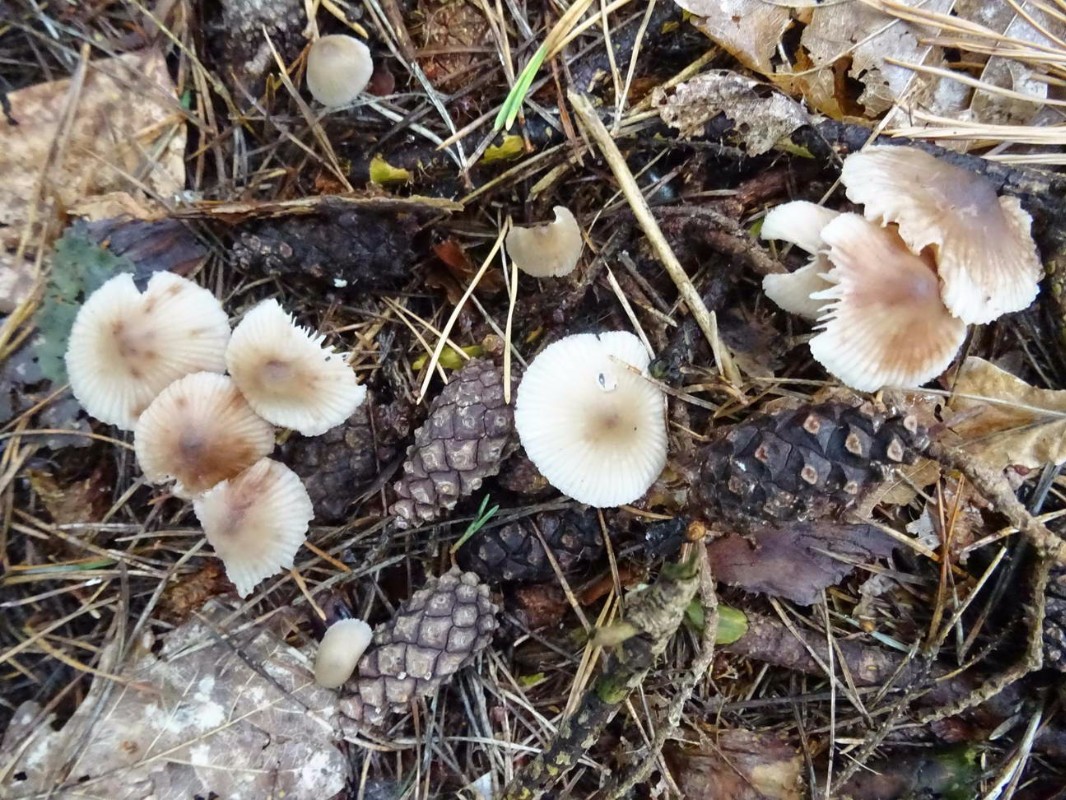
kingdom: Fungi
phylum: Basidiomycota
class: Agaricomycetes
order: Agaricales
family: Mycenaceae
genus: Mycena
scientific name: Mycena zephirus
